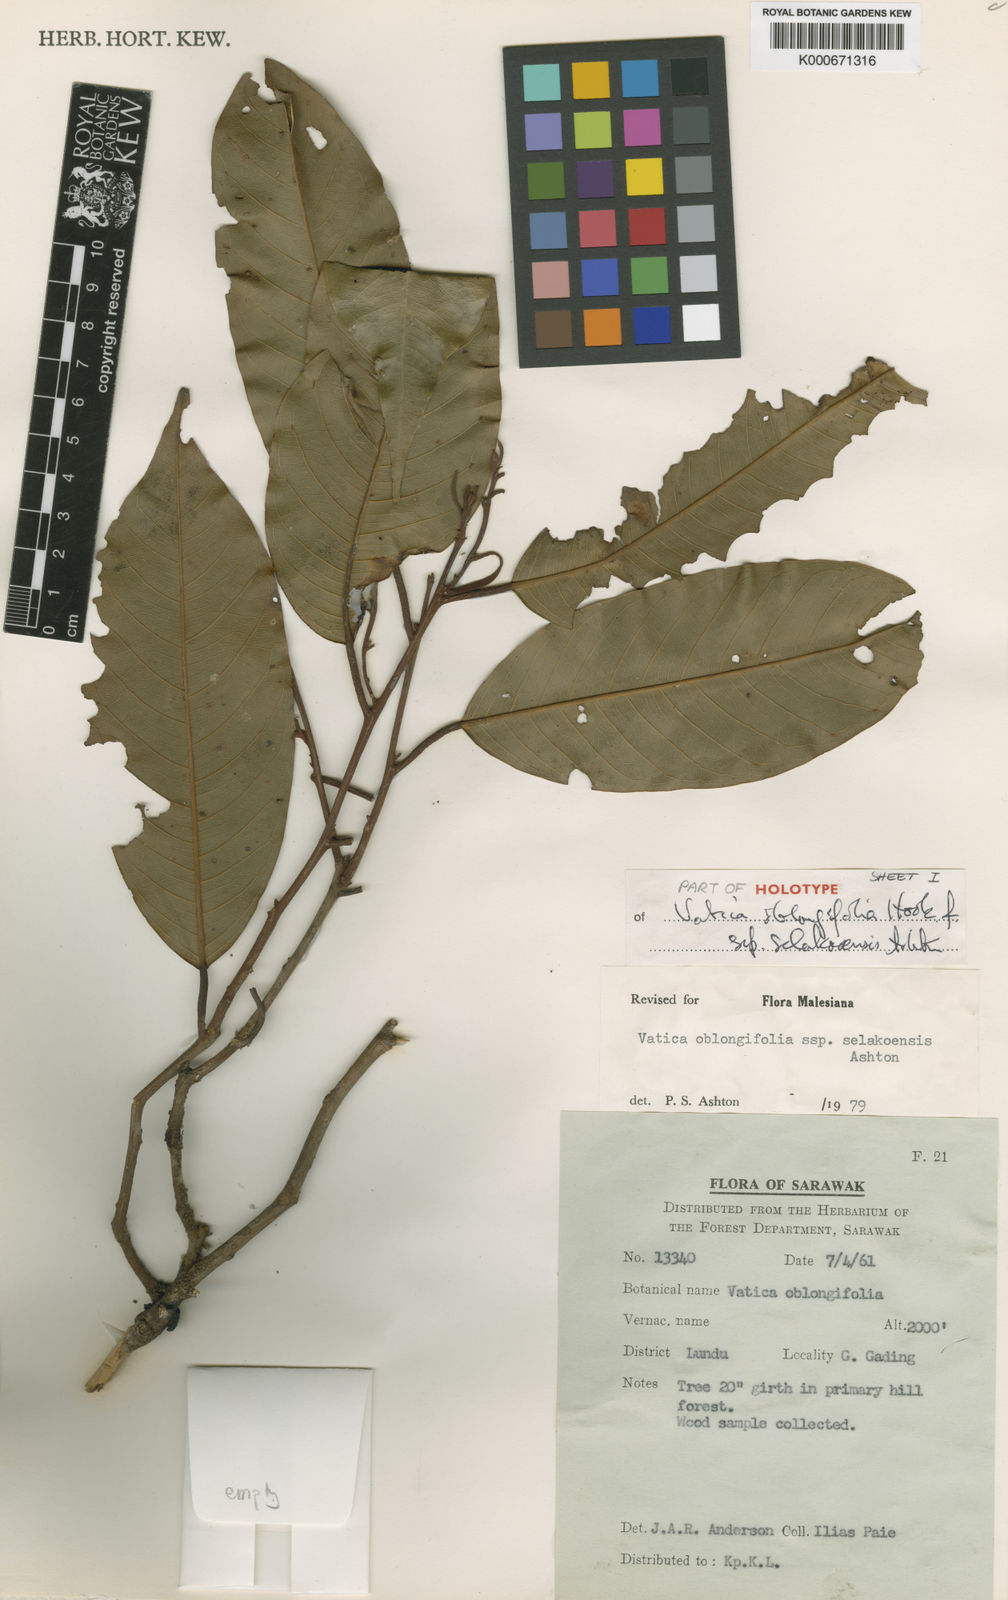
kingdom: Plantae
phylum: Tracheophyta
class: Magnoliopsida
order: Malvales
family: Dipterocarpaceae
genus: Vatica
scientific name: Vatica oblongifolia
